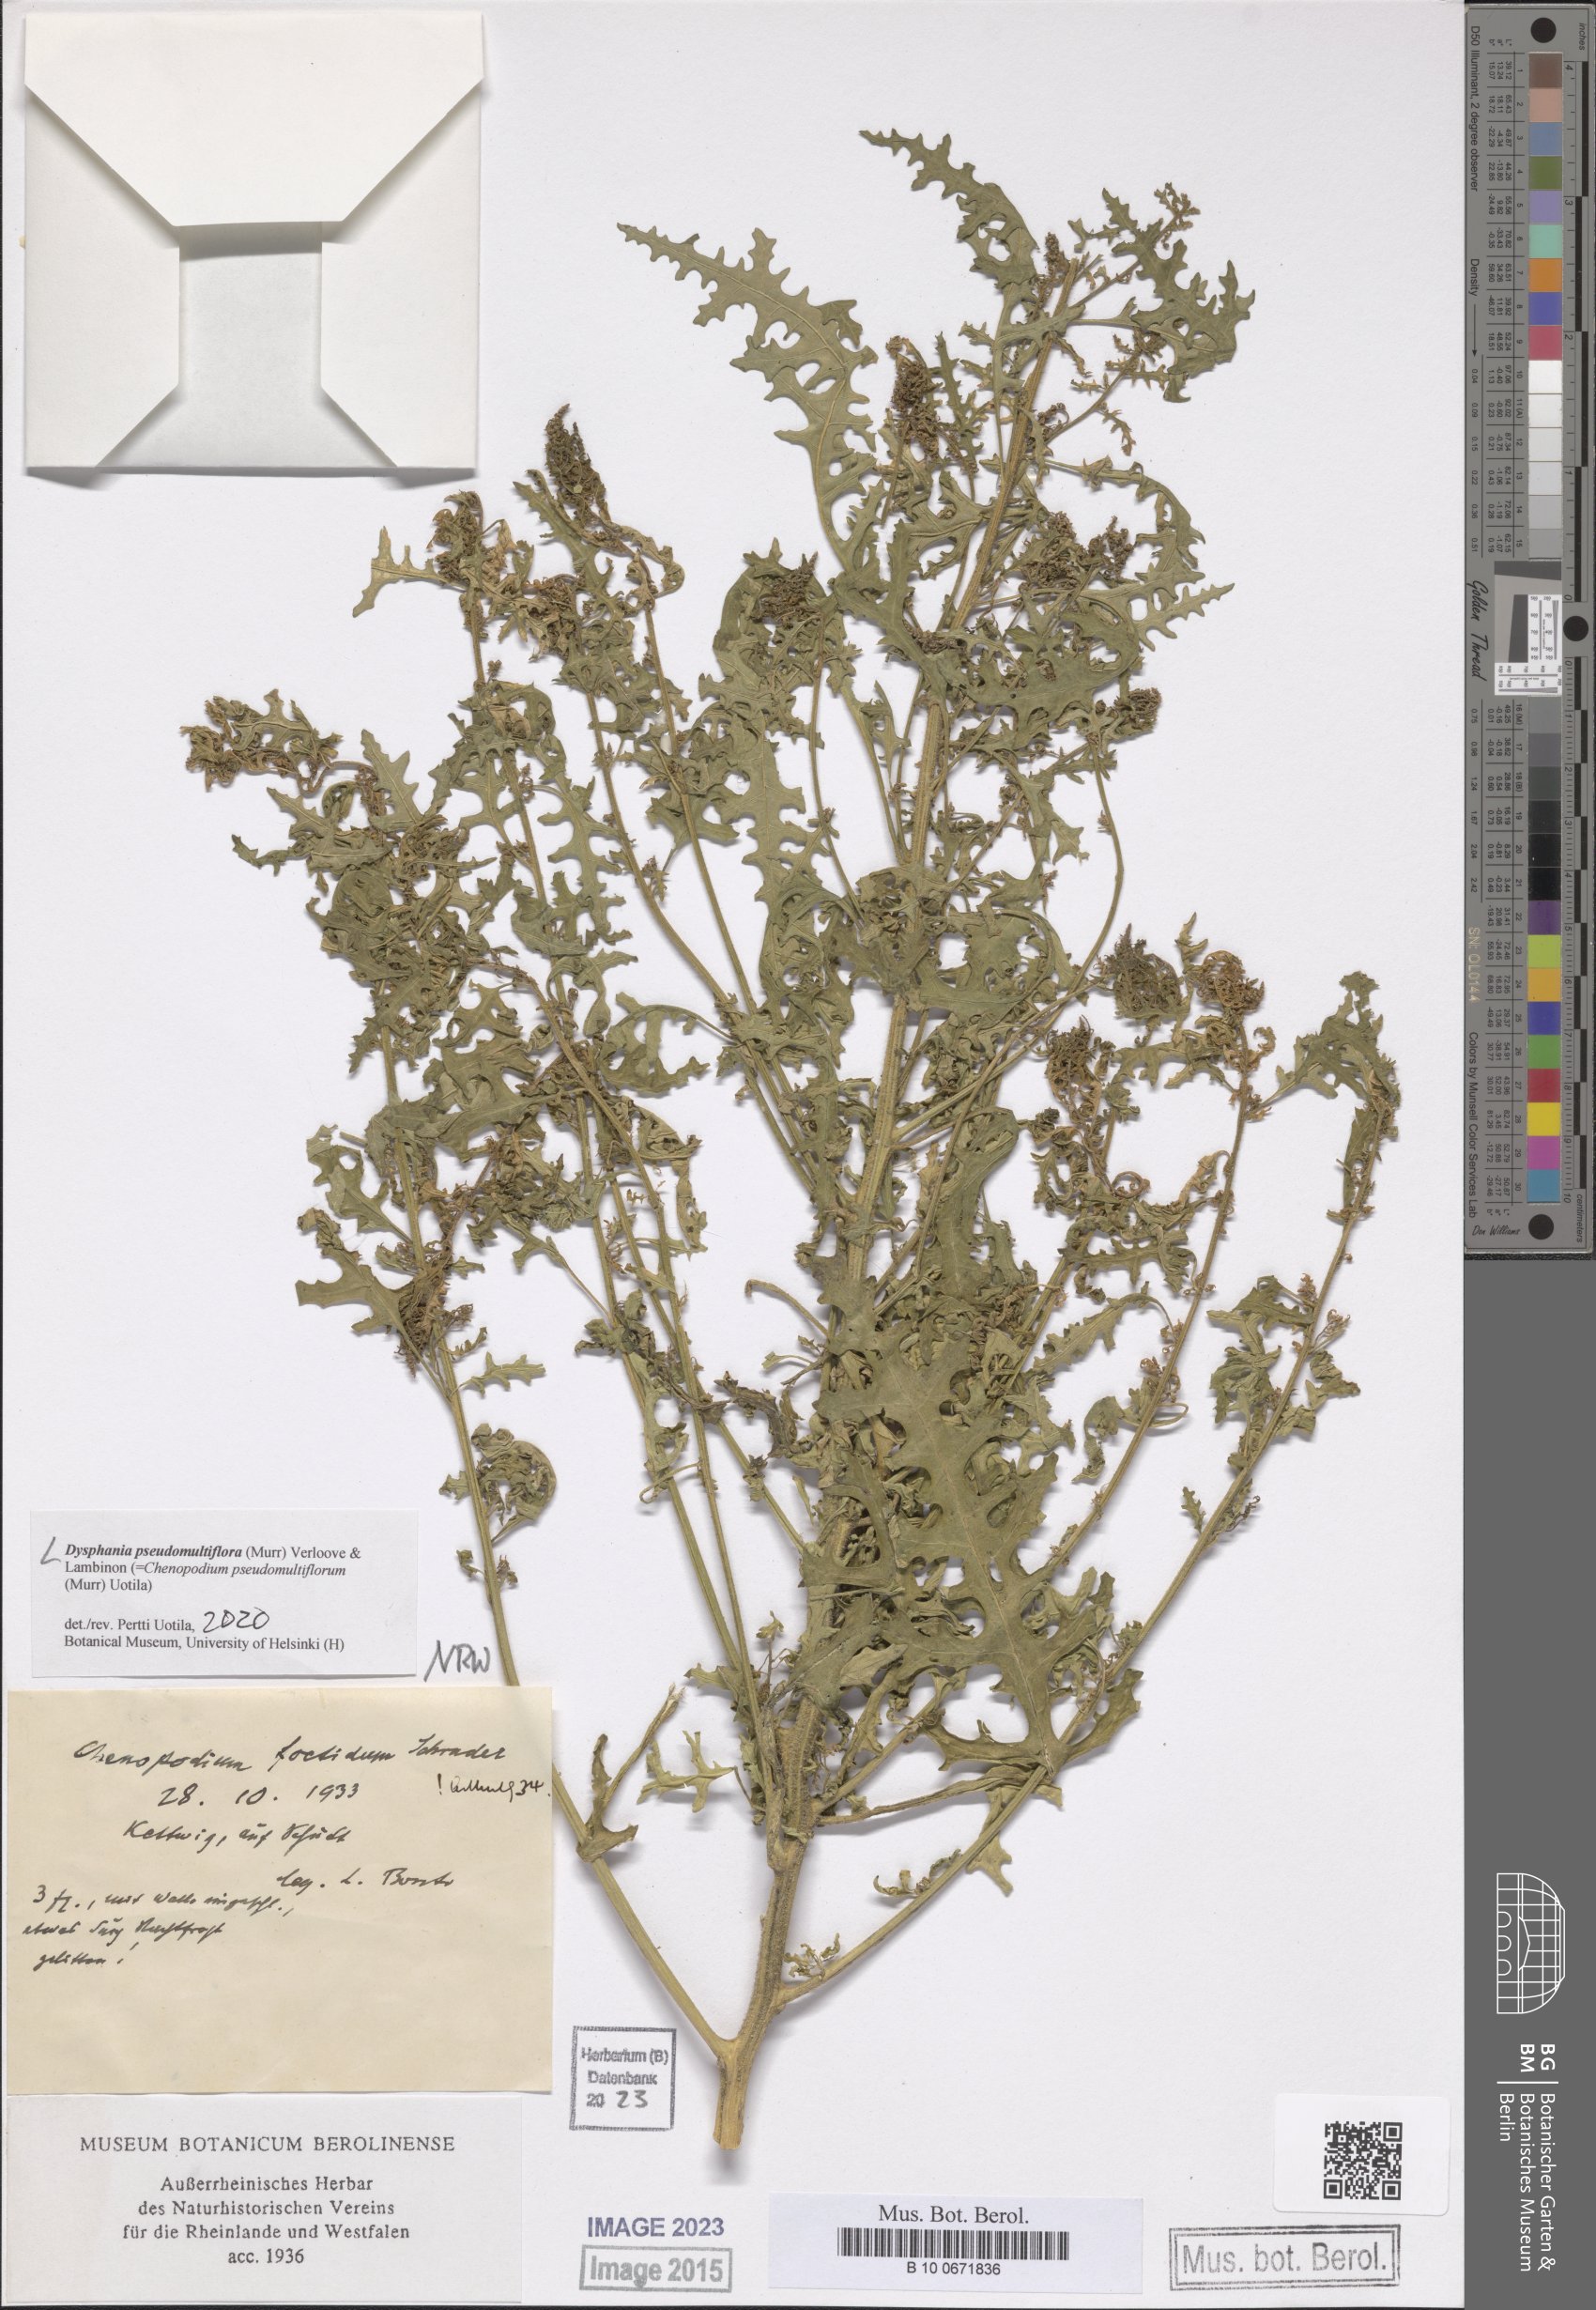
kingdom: Plantae
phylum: Tracheophyta
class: Magnoliopsida
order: Caryophyllales
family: Amaranthaceae
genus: Dysphania
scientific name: Dysphania pseudomultiflora
